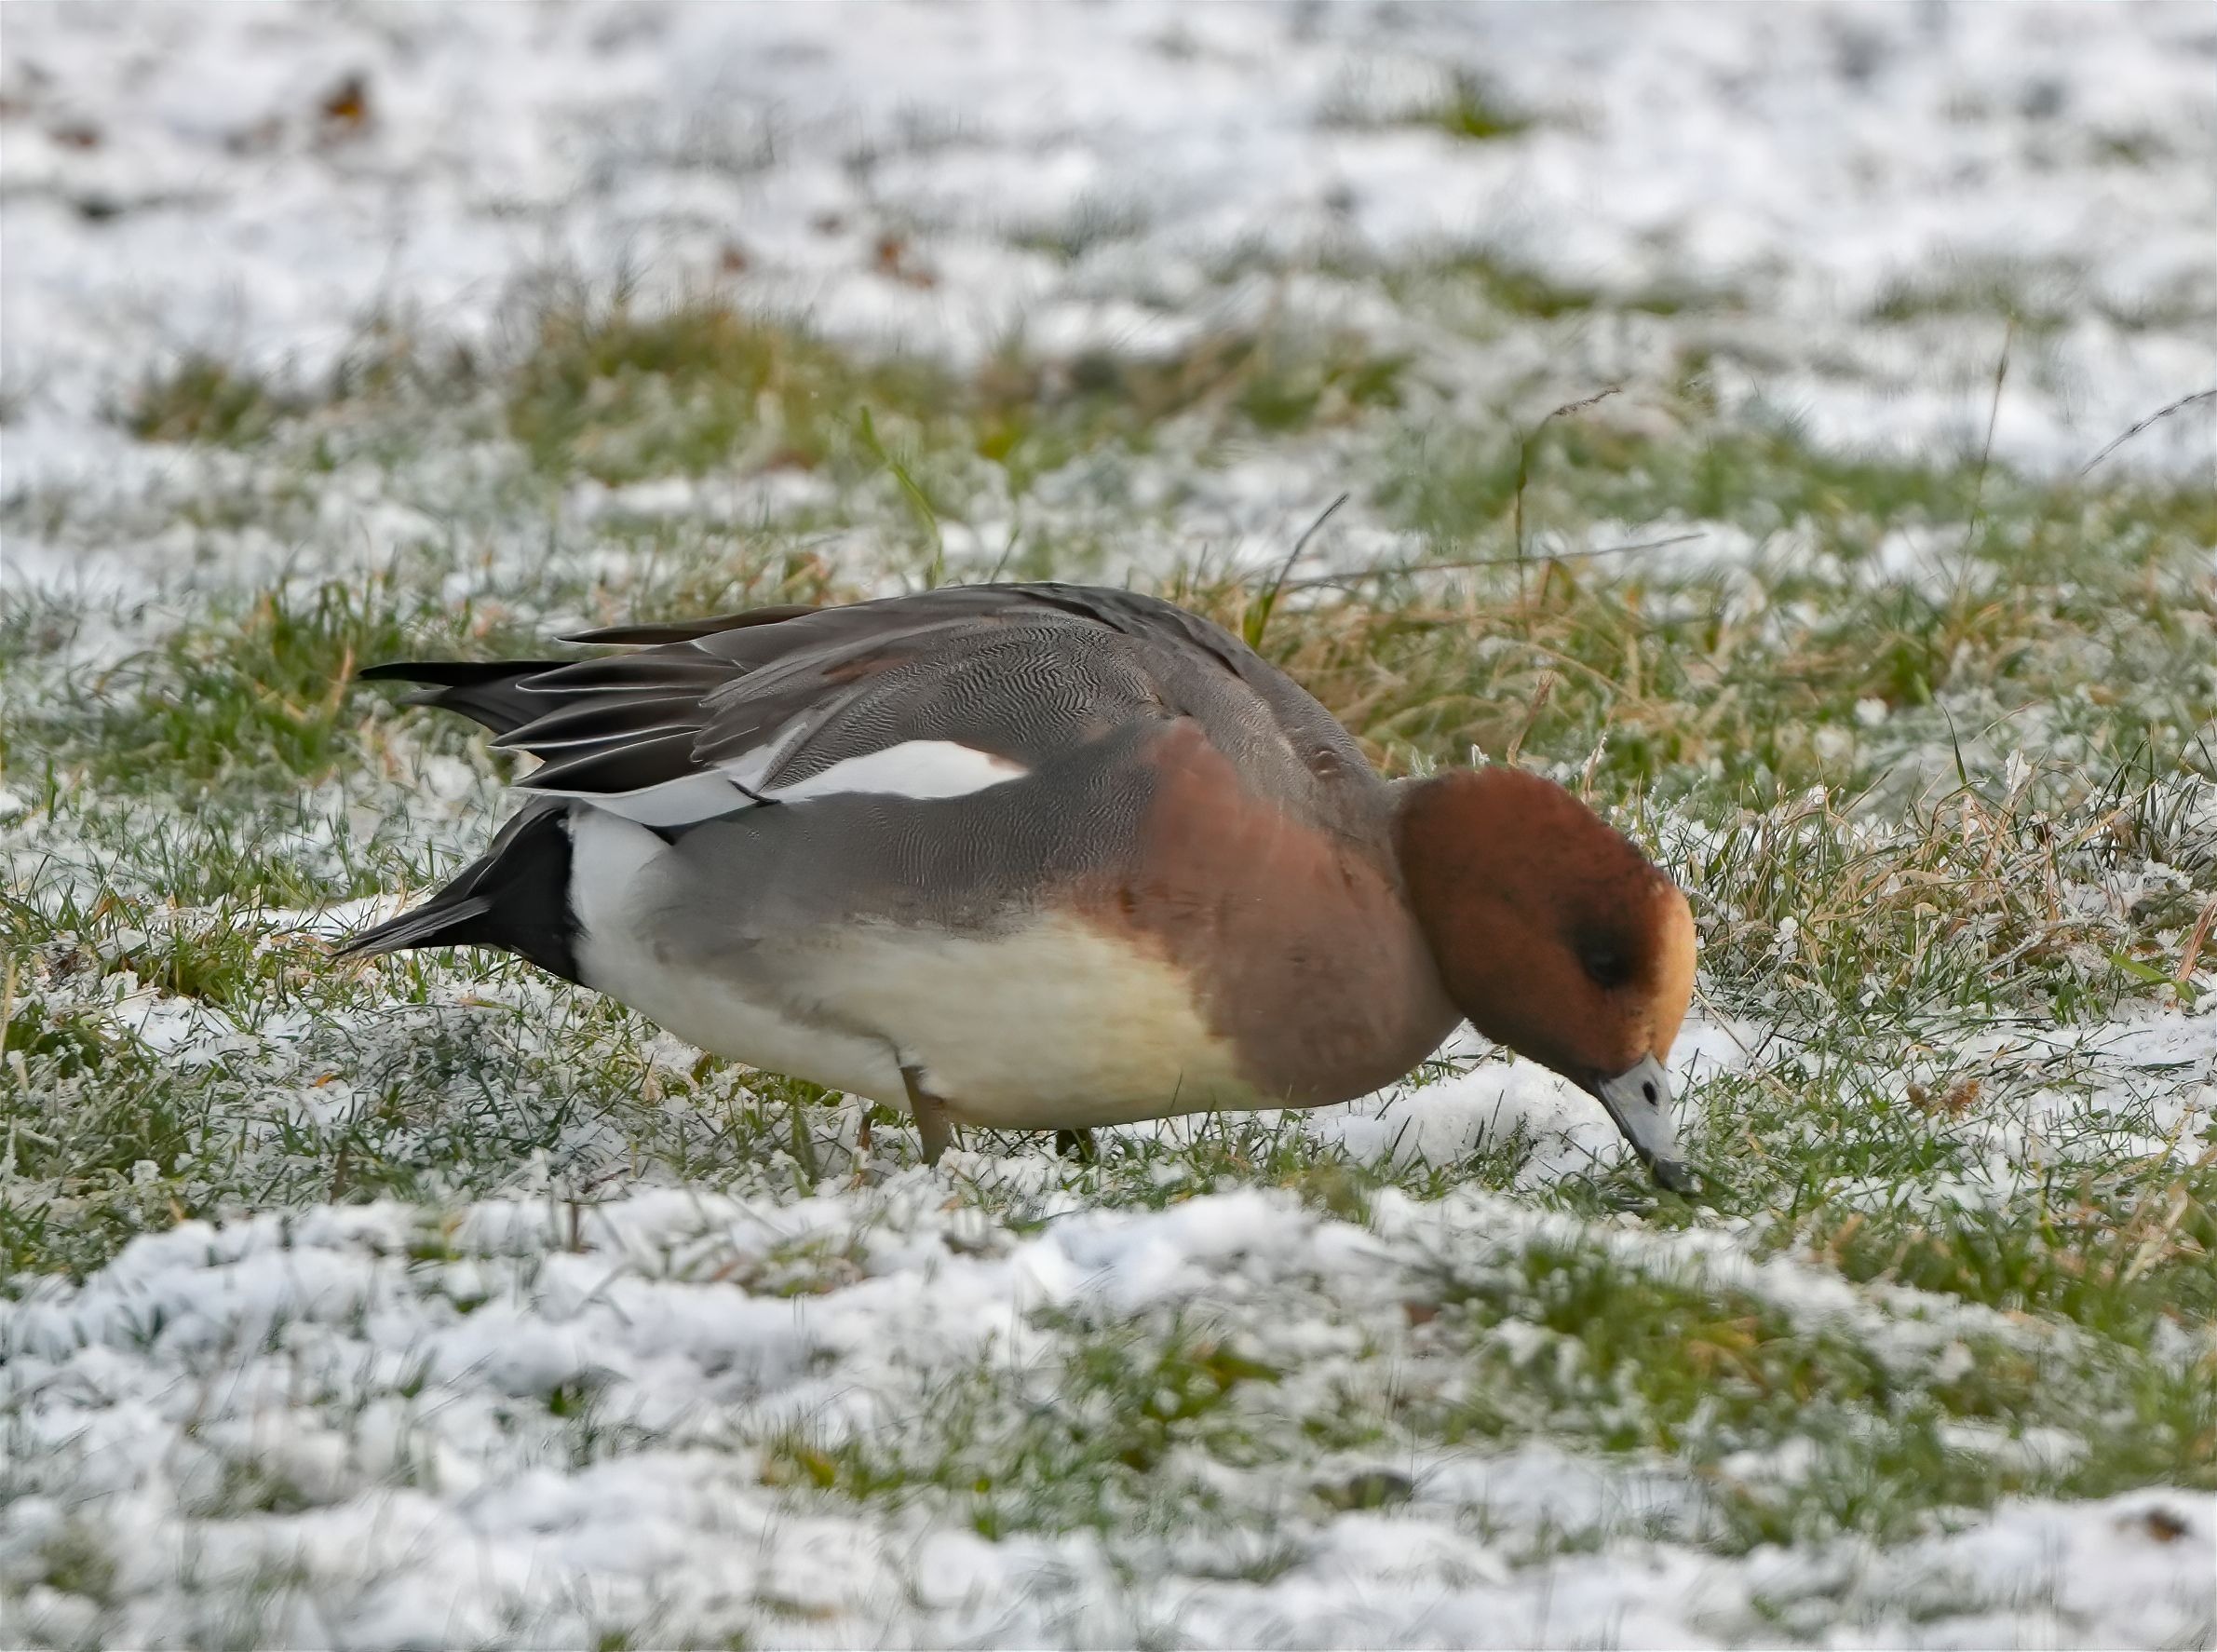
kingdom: Animalia
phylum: Chordata
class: Aves
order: Anseriformes
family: Anatidae
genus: Mareca
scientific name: Mareca penelope
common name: Pibeand
